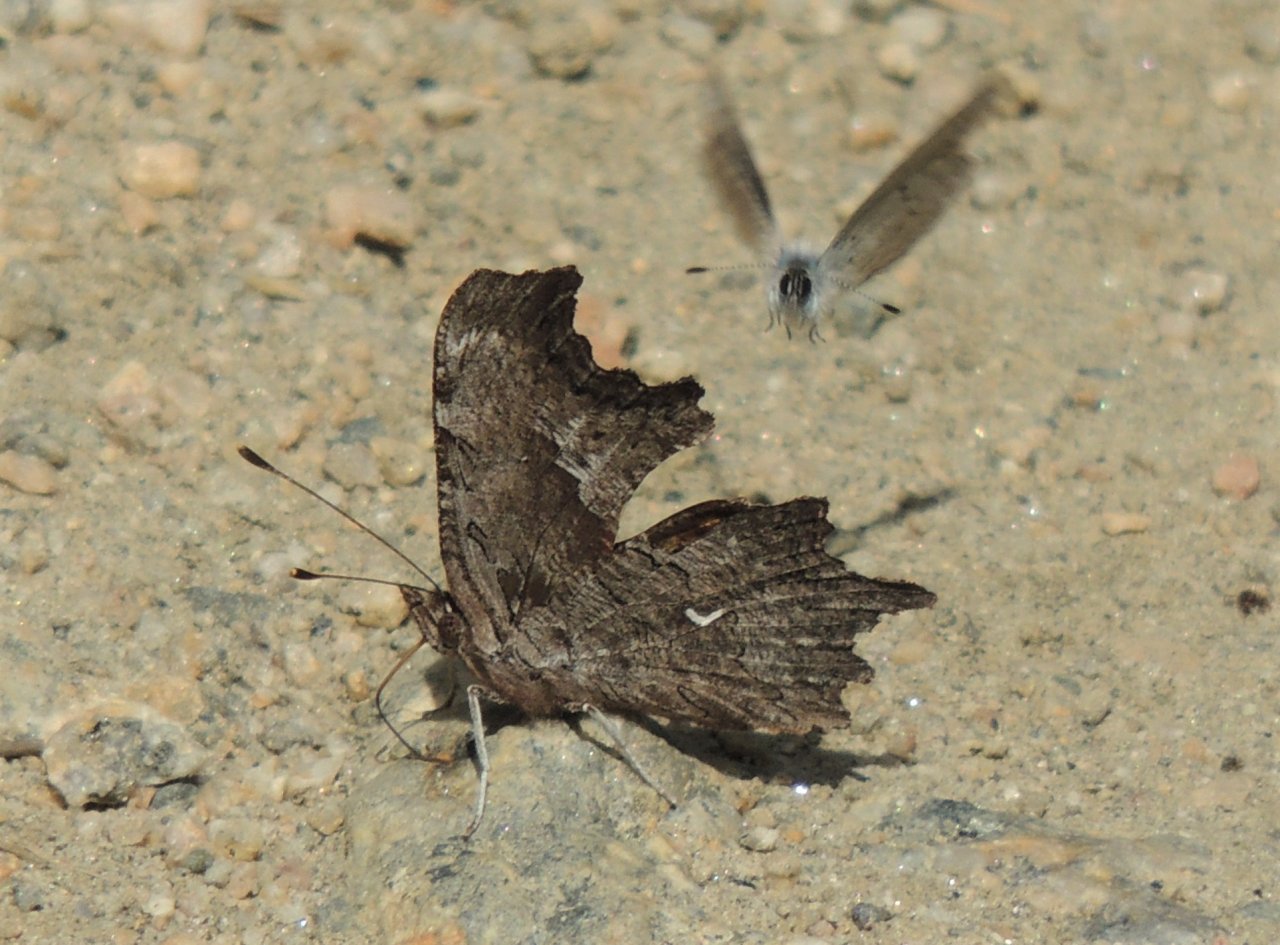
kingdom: Animalia
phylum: Arthropoda
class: Insecta
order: Lepidoptera
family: Nymphalidae
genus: Polygonia
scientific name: Polygonia gracilis
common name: Hoary Comma
